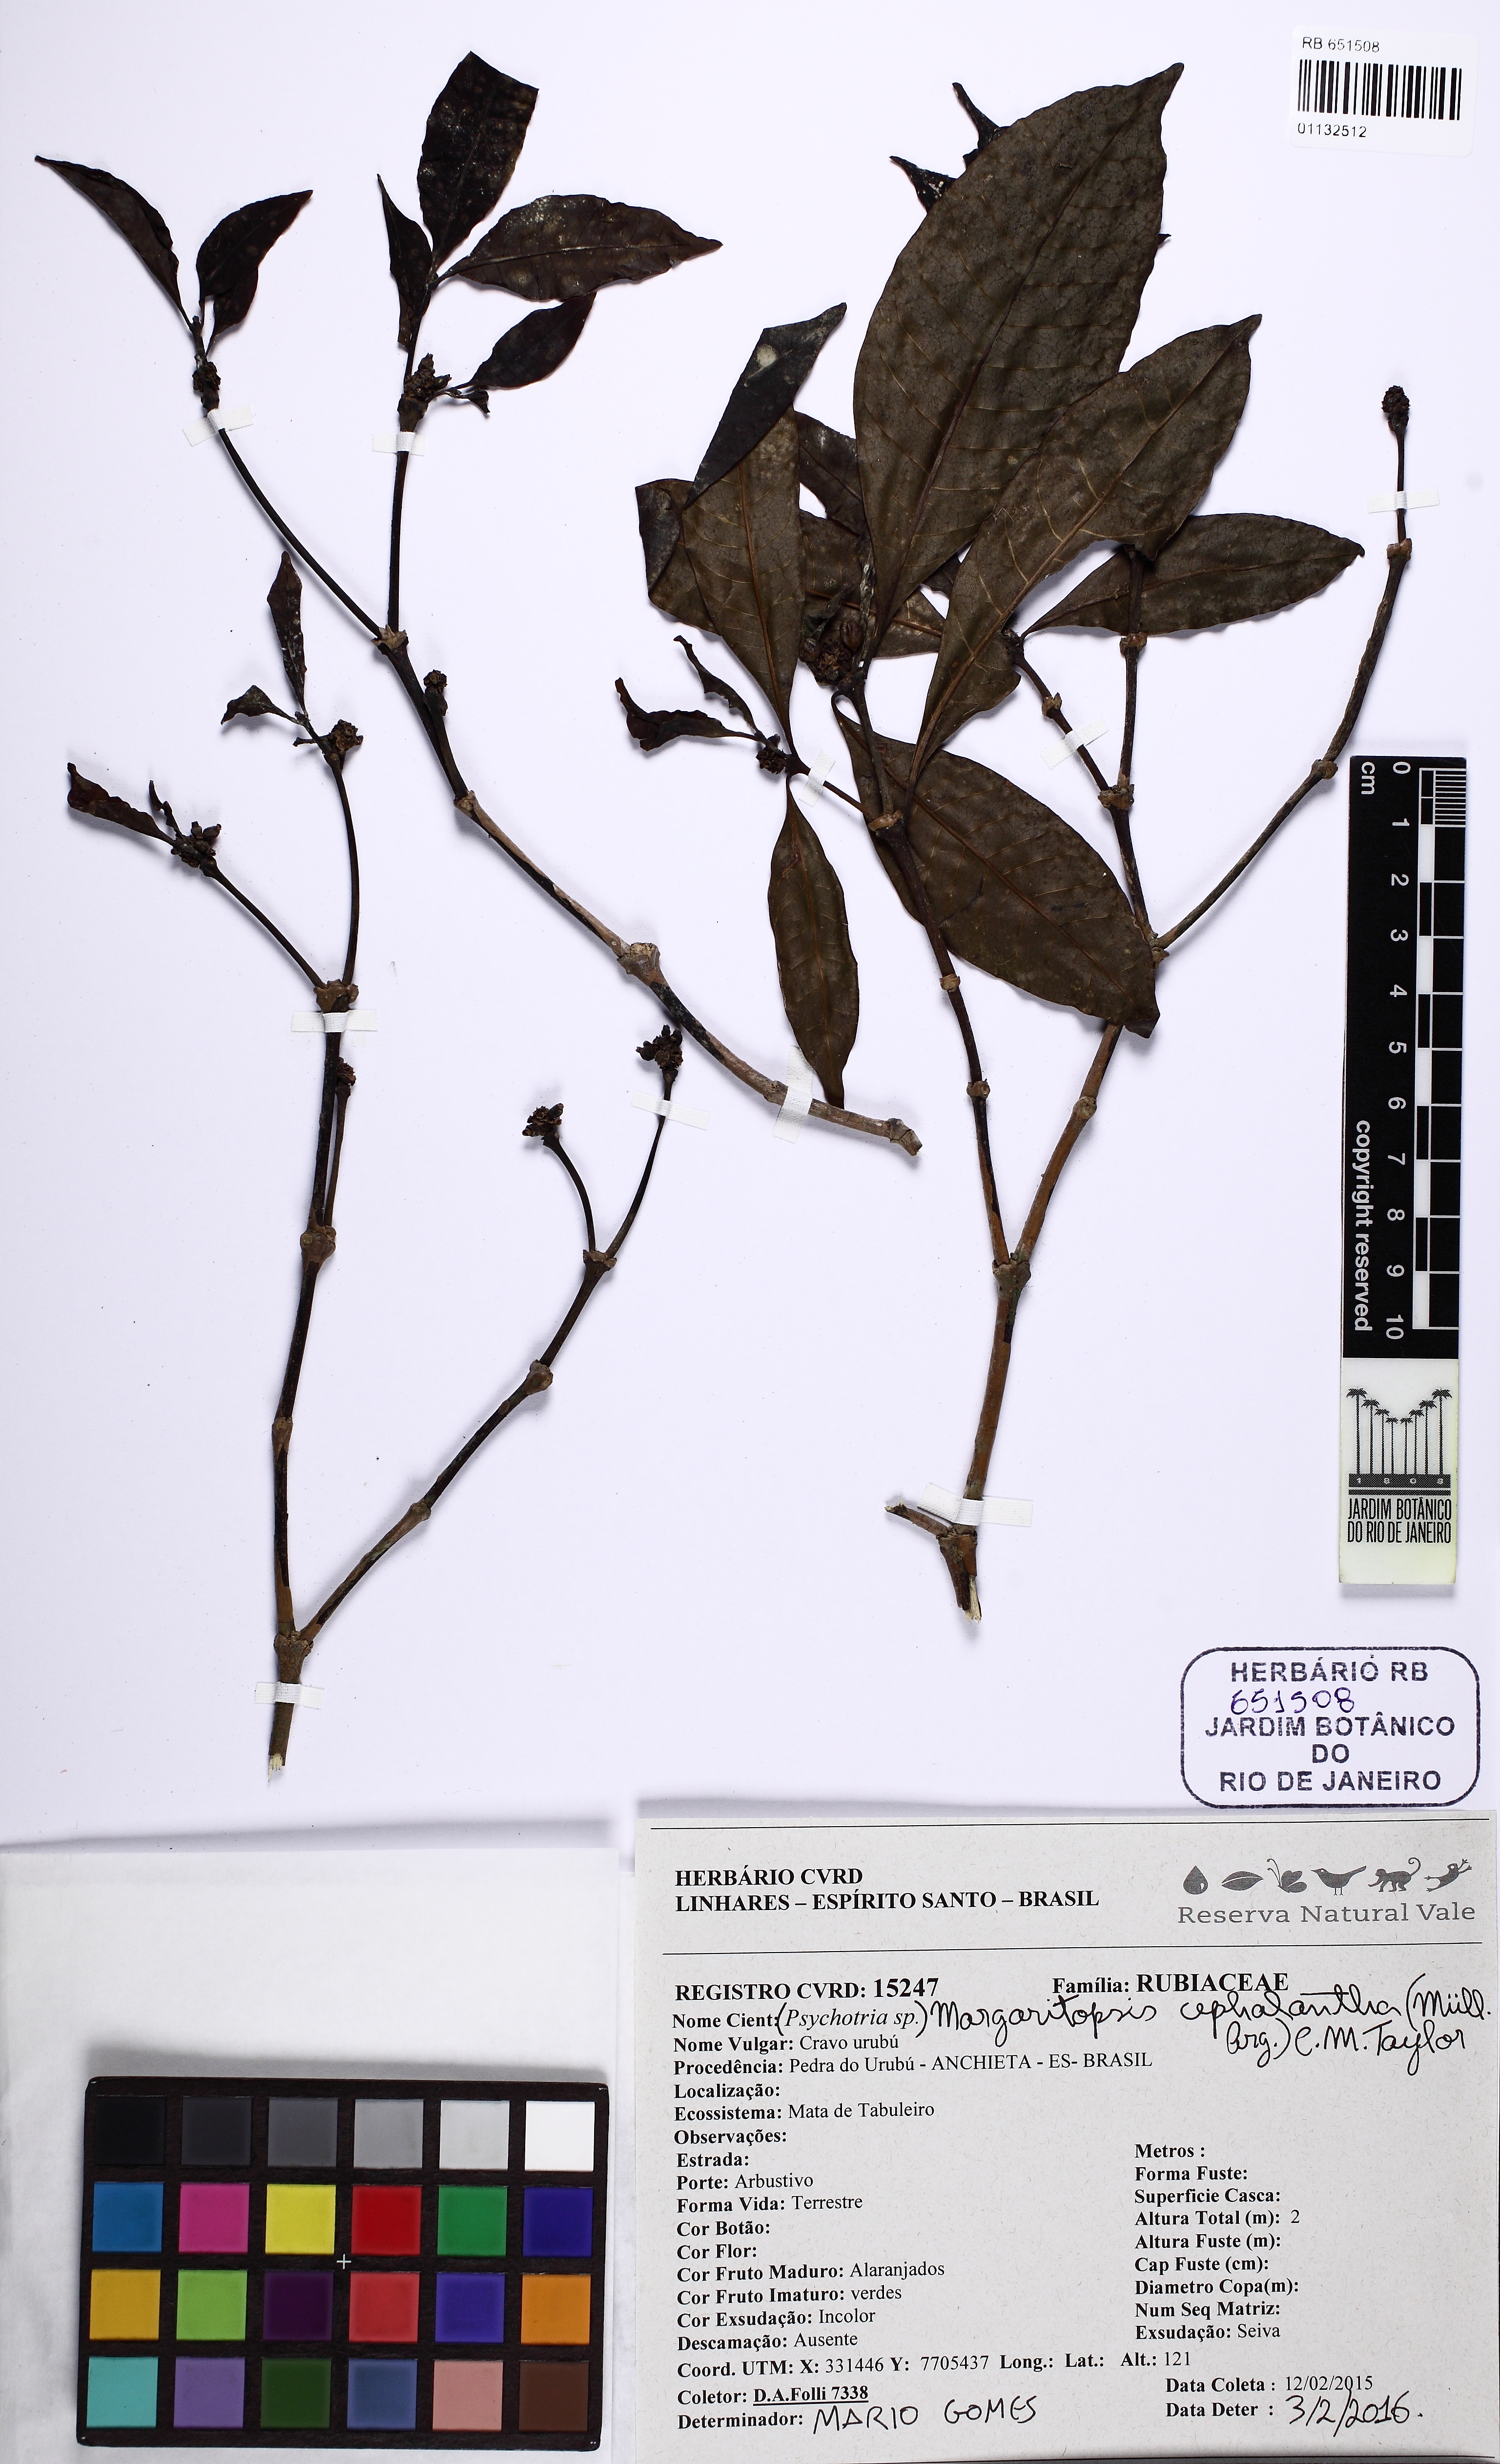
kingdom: Plantae
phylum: Tracheophyta
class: Magnoliopsida
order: Gentianales
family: Rubiaceae
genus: Eumachia
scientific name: Eumachia cephalantha
